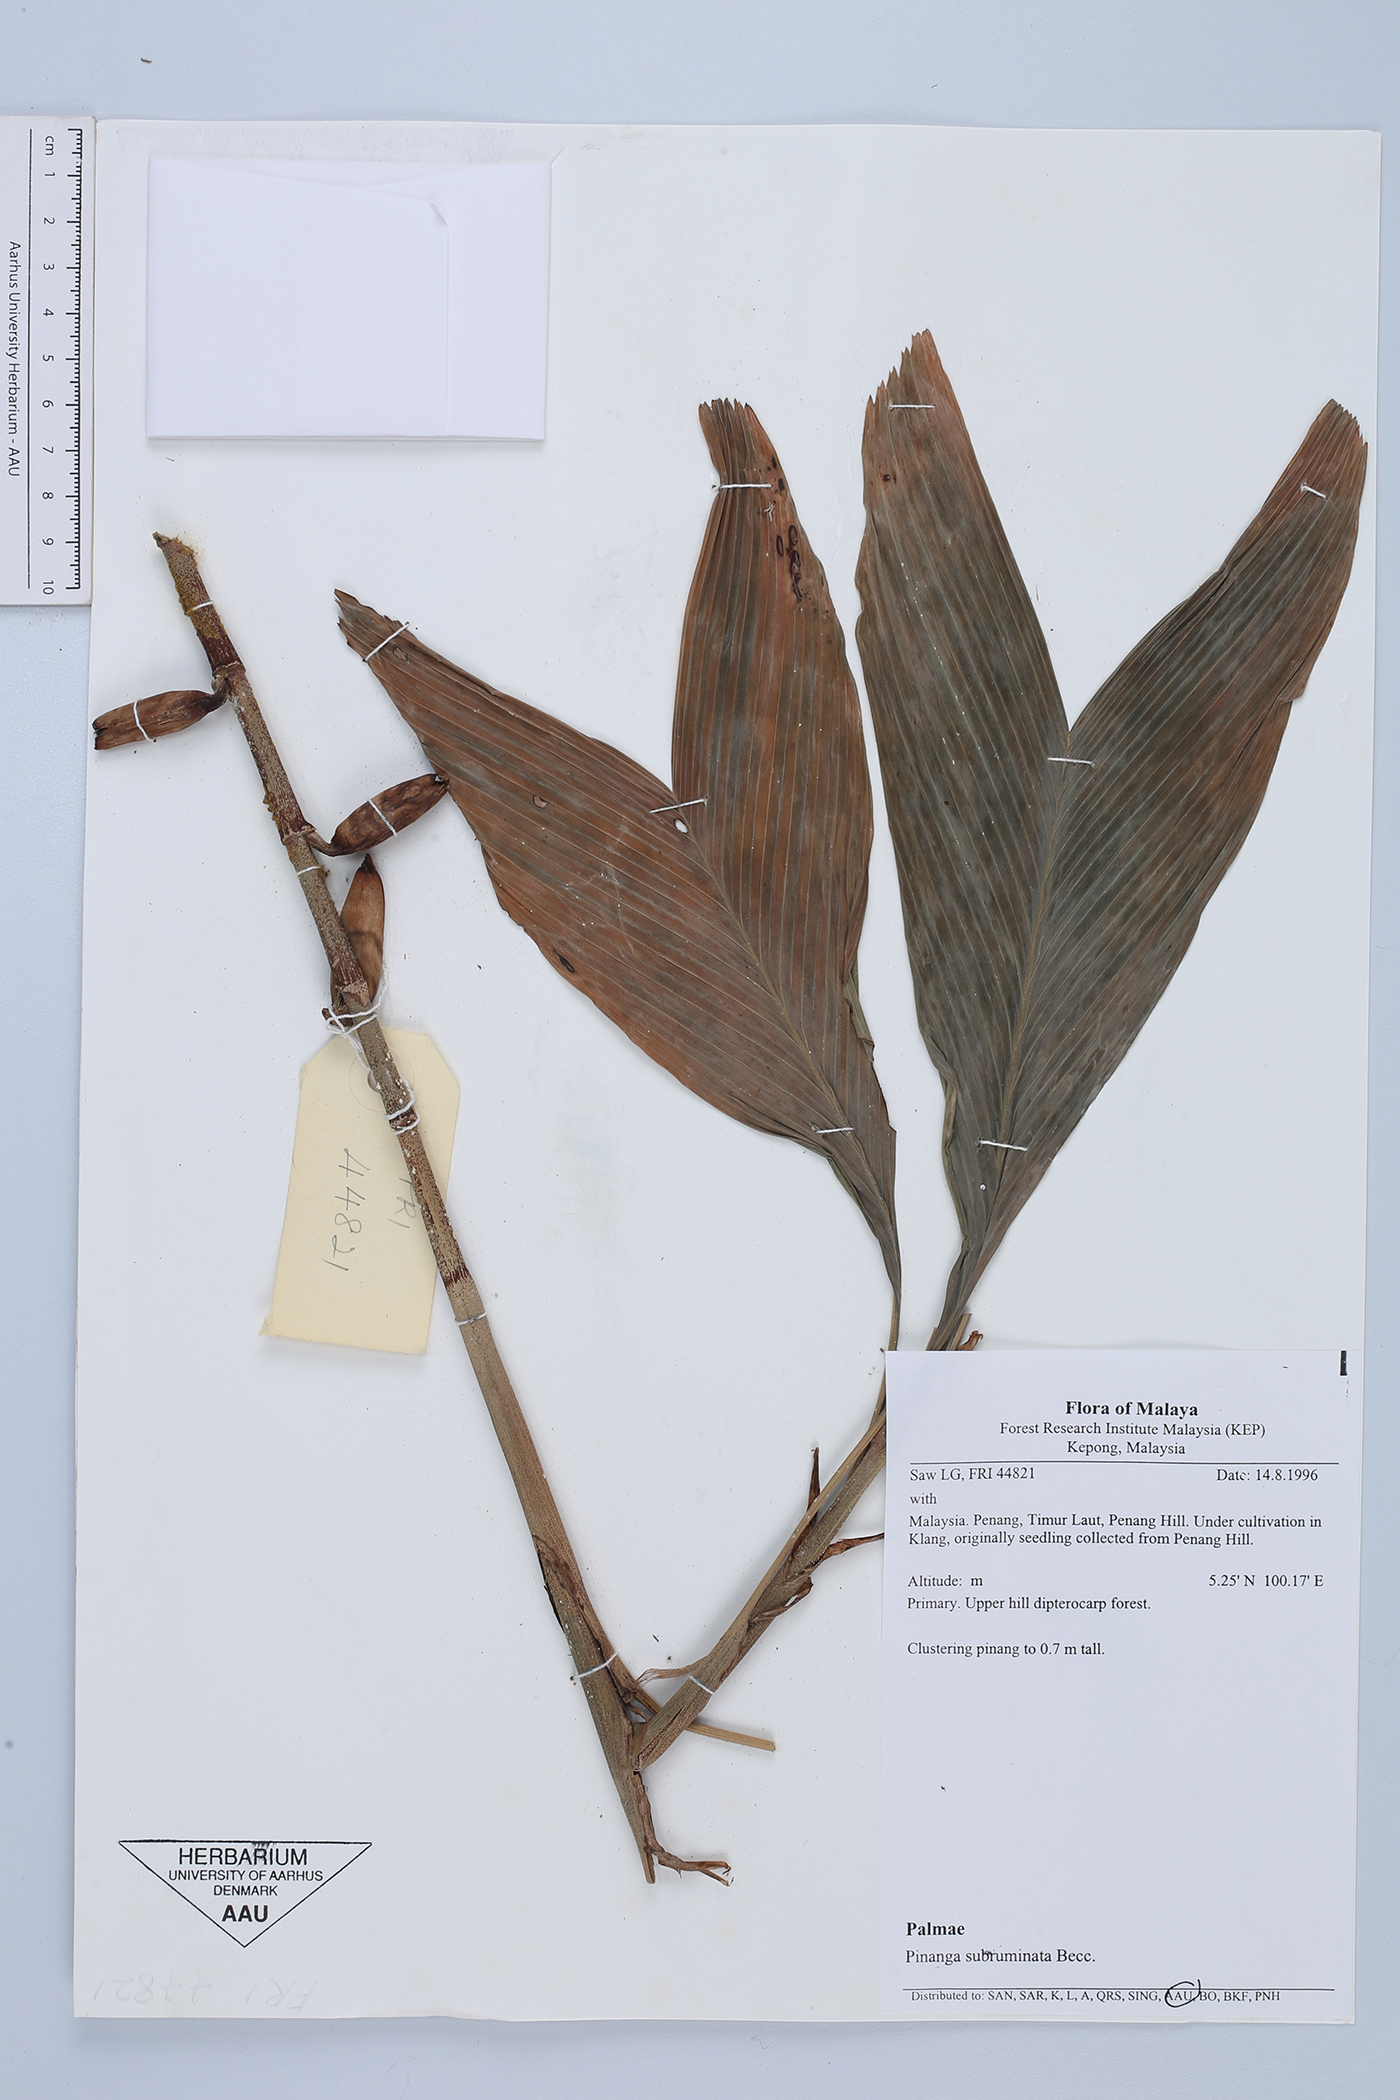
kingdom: Plantae
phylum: Tracheophyta
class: Liliopsida
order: Arecales
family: Arecaceae
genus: Pinanga
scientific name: Pinanga subruminata
